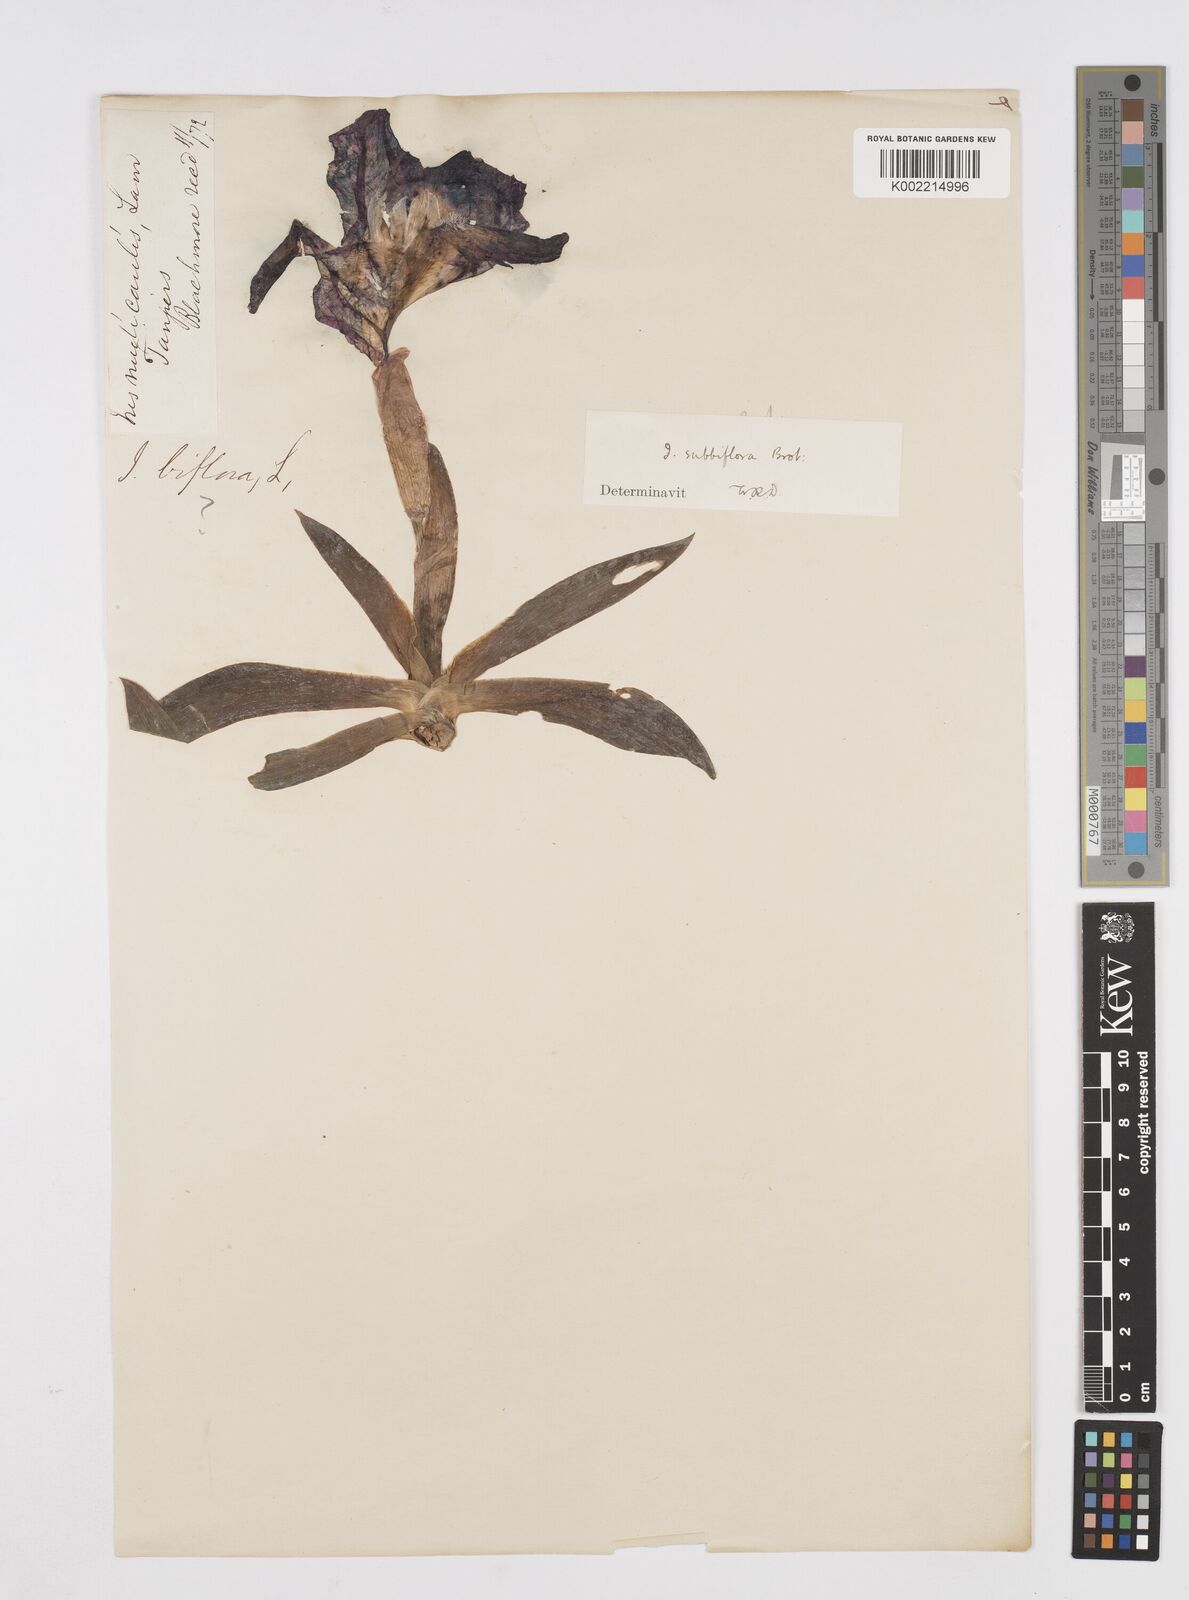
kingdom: Plantae
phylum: Tracheophyta
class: Liliopsida
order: Asparagales
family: Iridaceae
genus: Iris
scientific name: Iris lutescens
